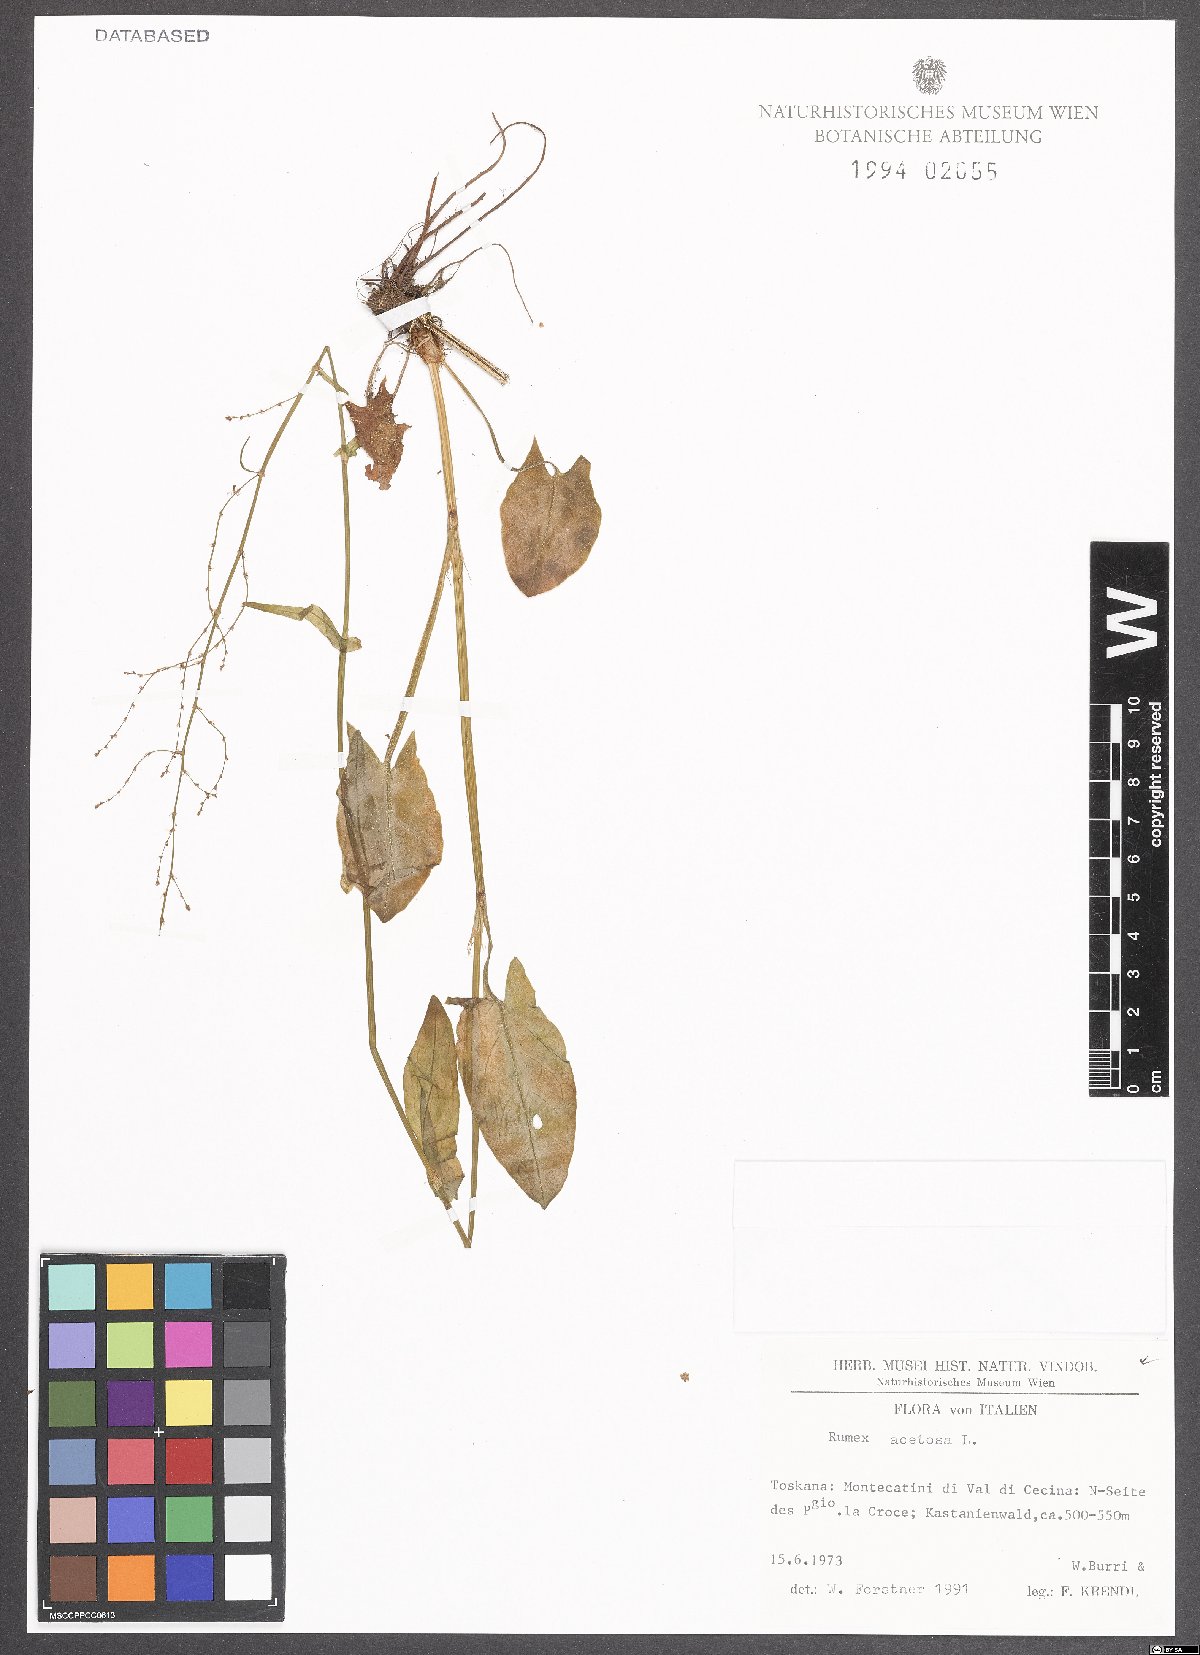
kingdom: Plantae
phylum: Tracheophyta
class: Magnoliopsida
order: Caryophyllales
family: Polygonaceae
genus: Rumex
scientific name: Rumex acetosa
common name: Garden sorrel
